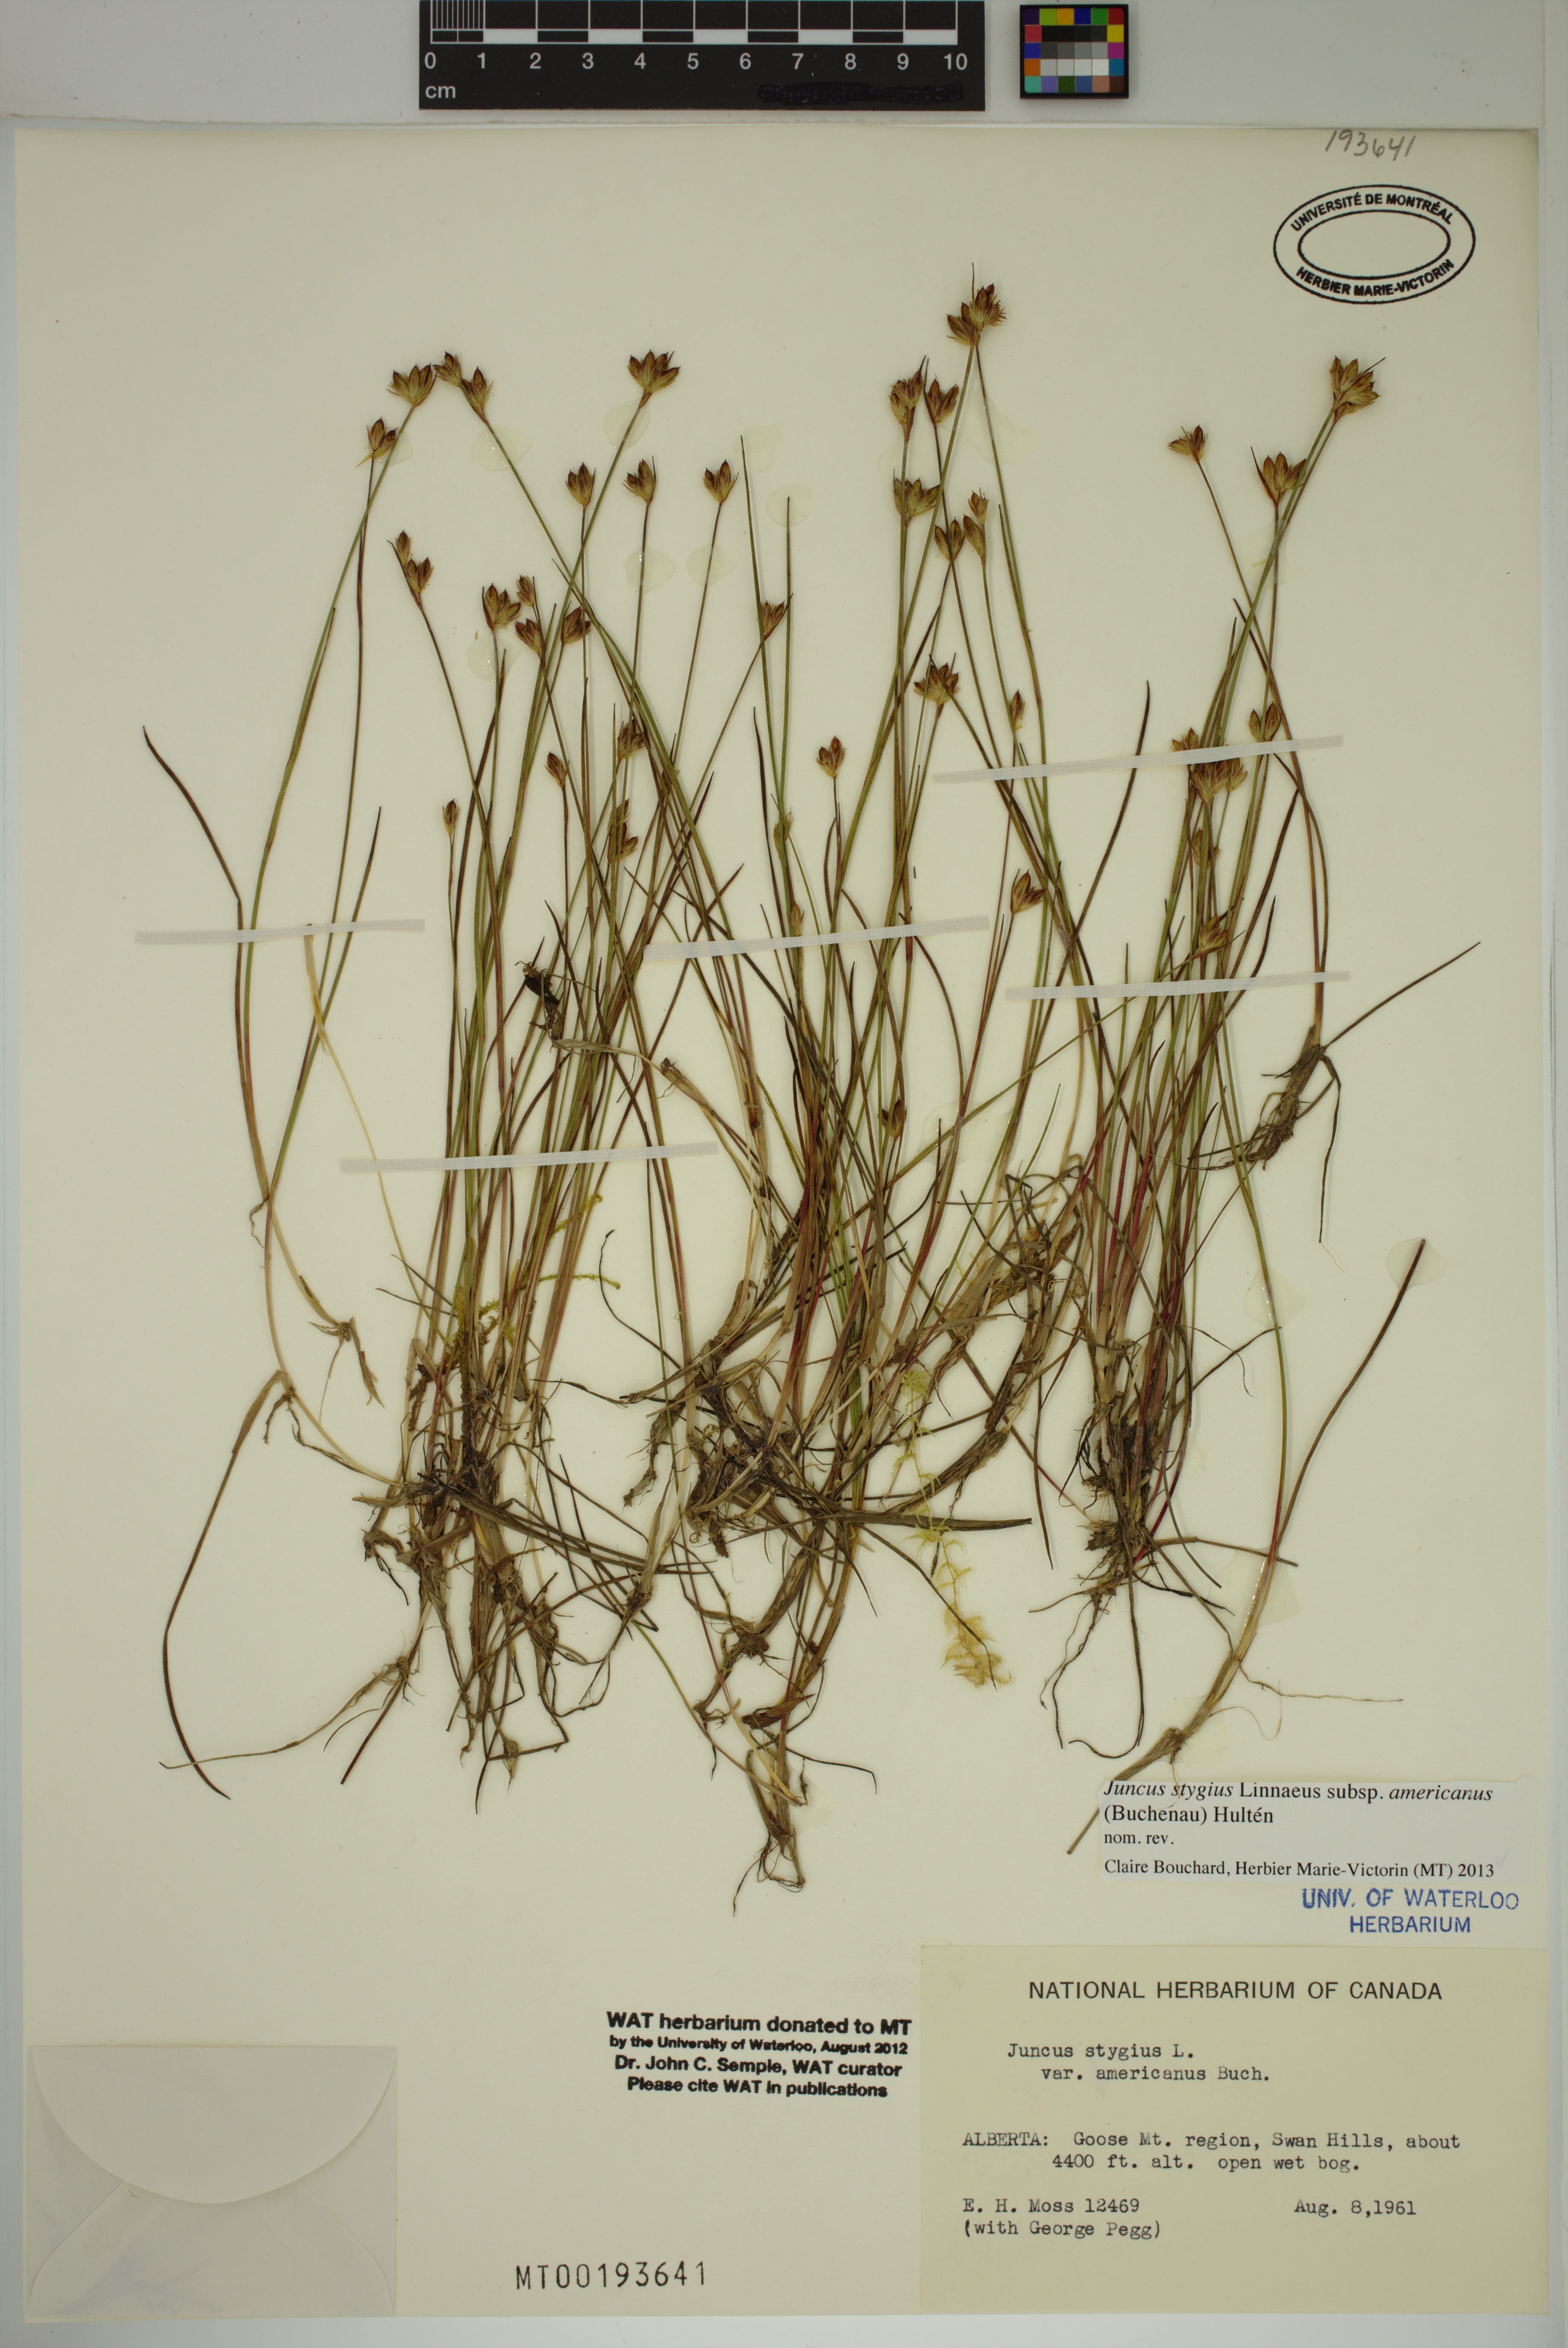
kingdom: Plantae
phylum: Tracheophyta
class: Liliopsida
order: Poales
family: Juncaceae
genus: Juncus
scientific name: Juncus stygius
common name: Bog rush
